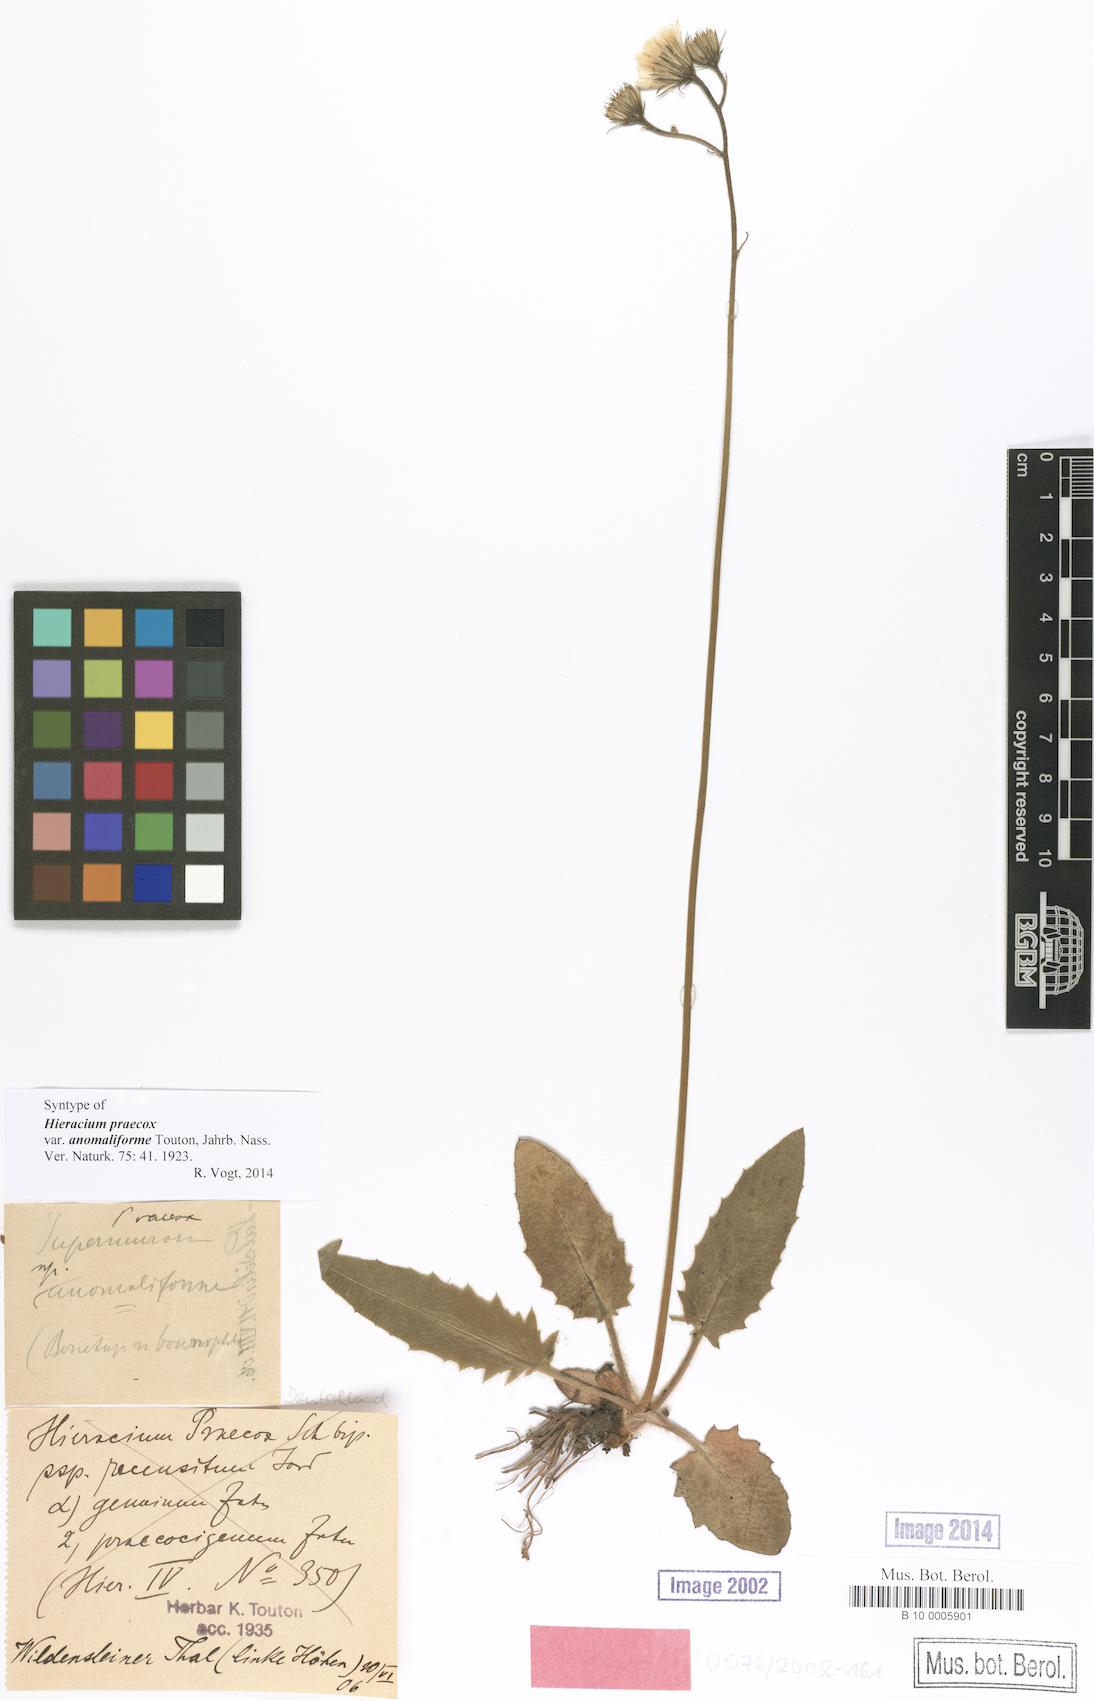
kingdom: Plantae
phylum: Tracheophyta
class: Magnoliopsida
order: Asterales
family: Asteraceae
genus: Hieracium
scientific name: Hieracium praecox
